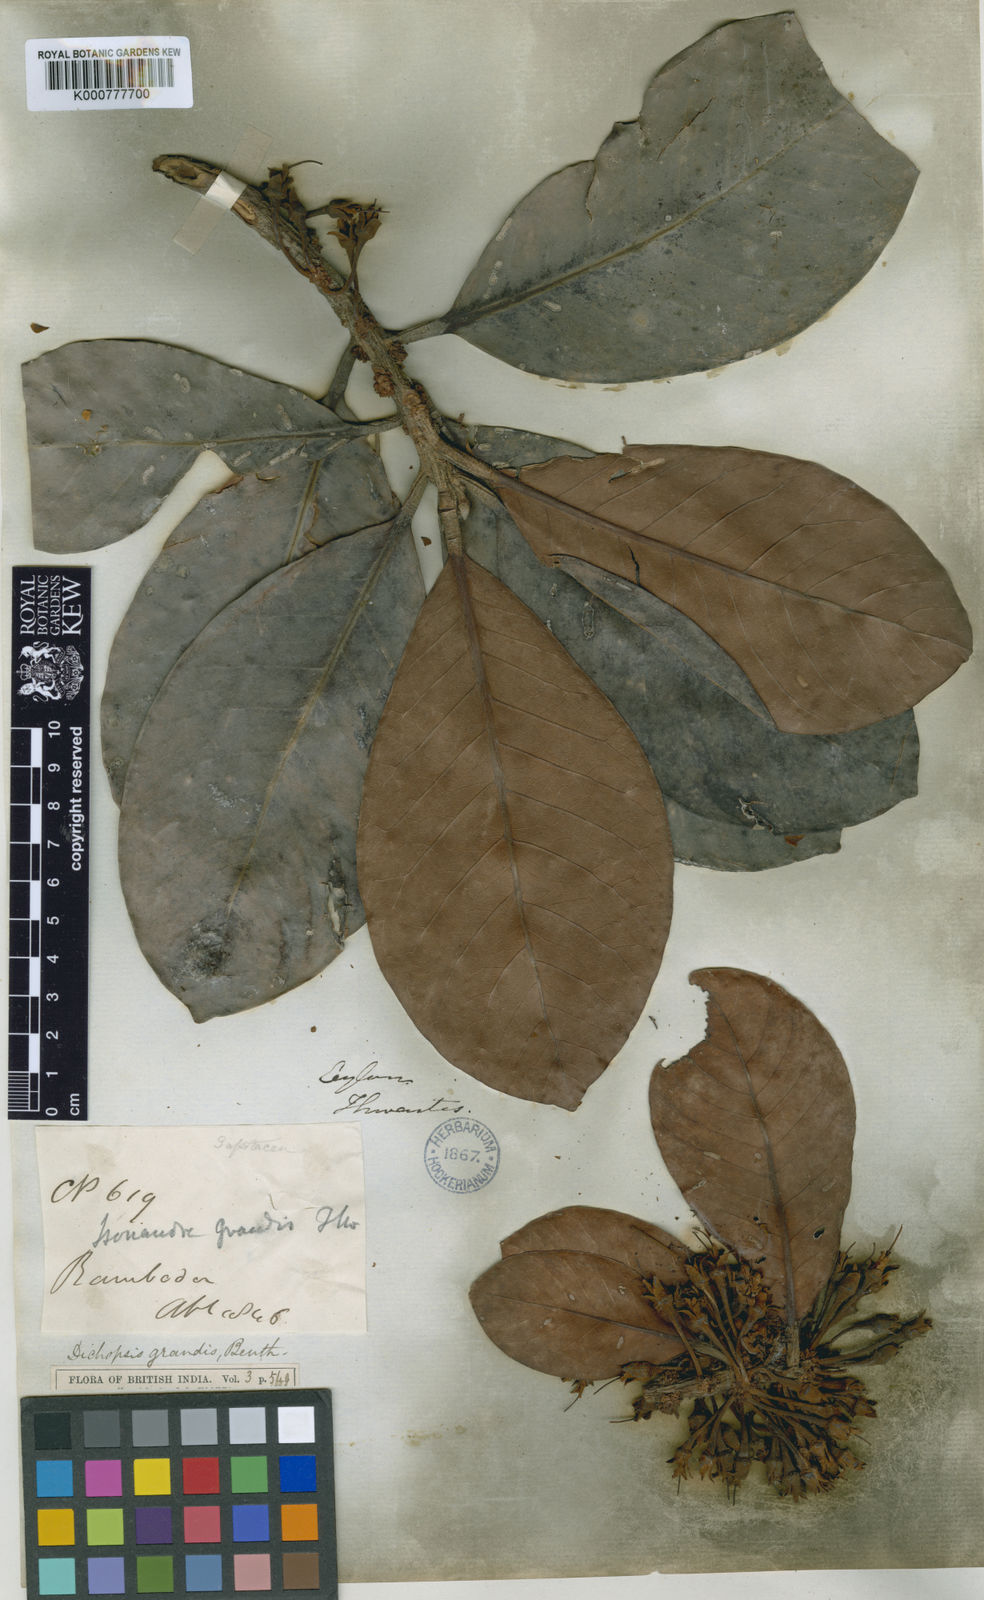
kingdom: Plantae
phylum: Tracheophyta
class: Magnoliopsida
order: Ericales
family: Sapotaceae
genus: Palaquium
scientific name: Palaquium grande
